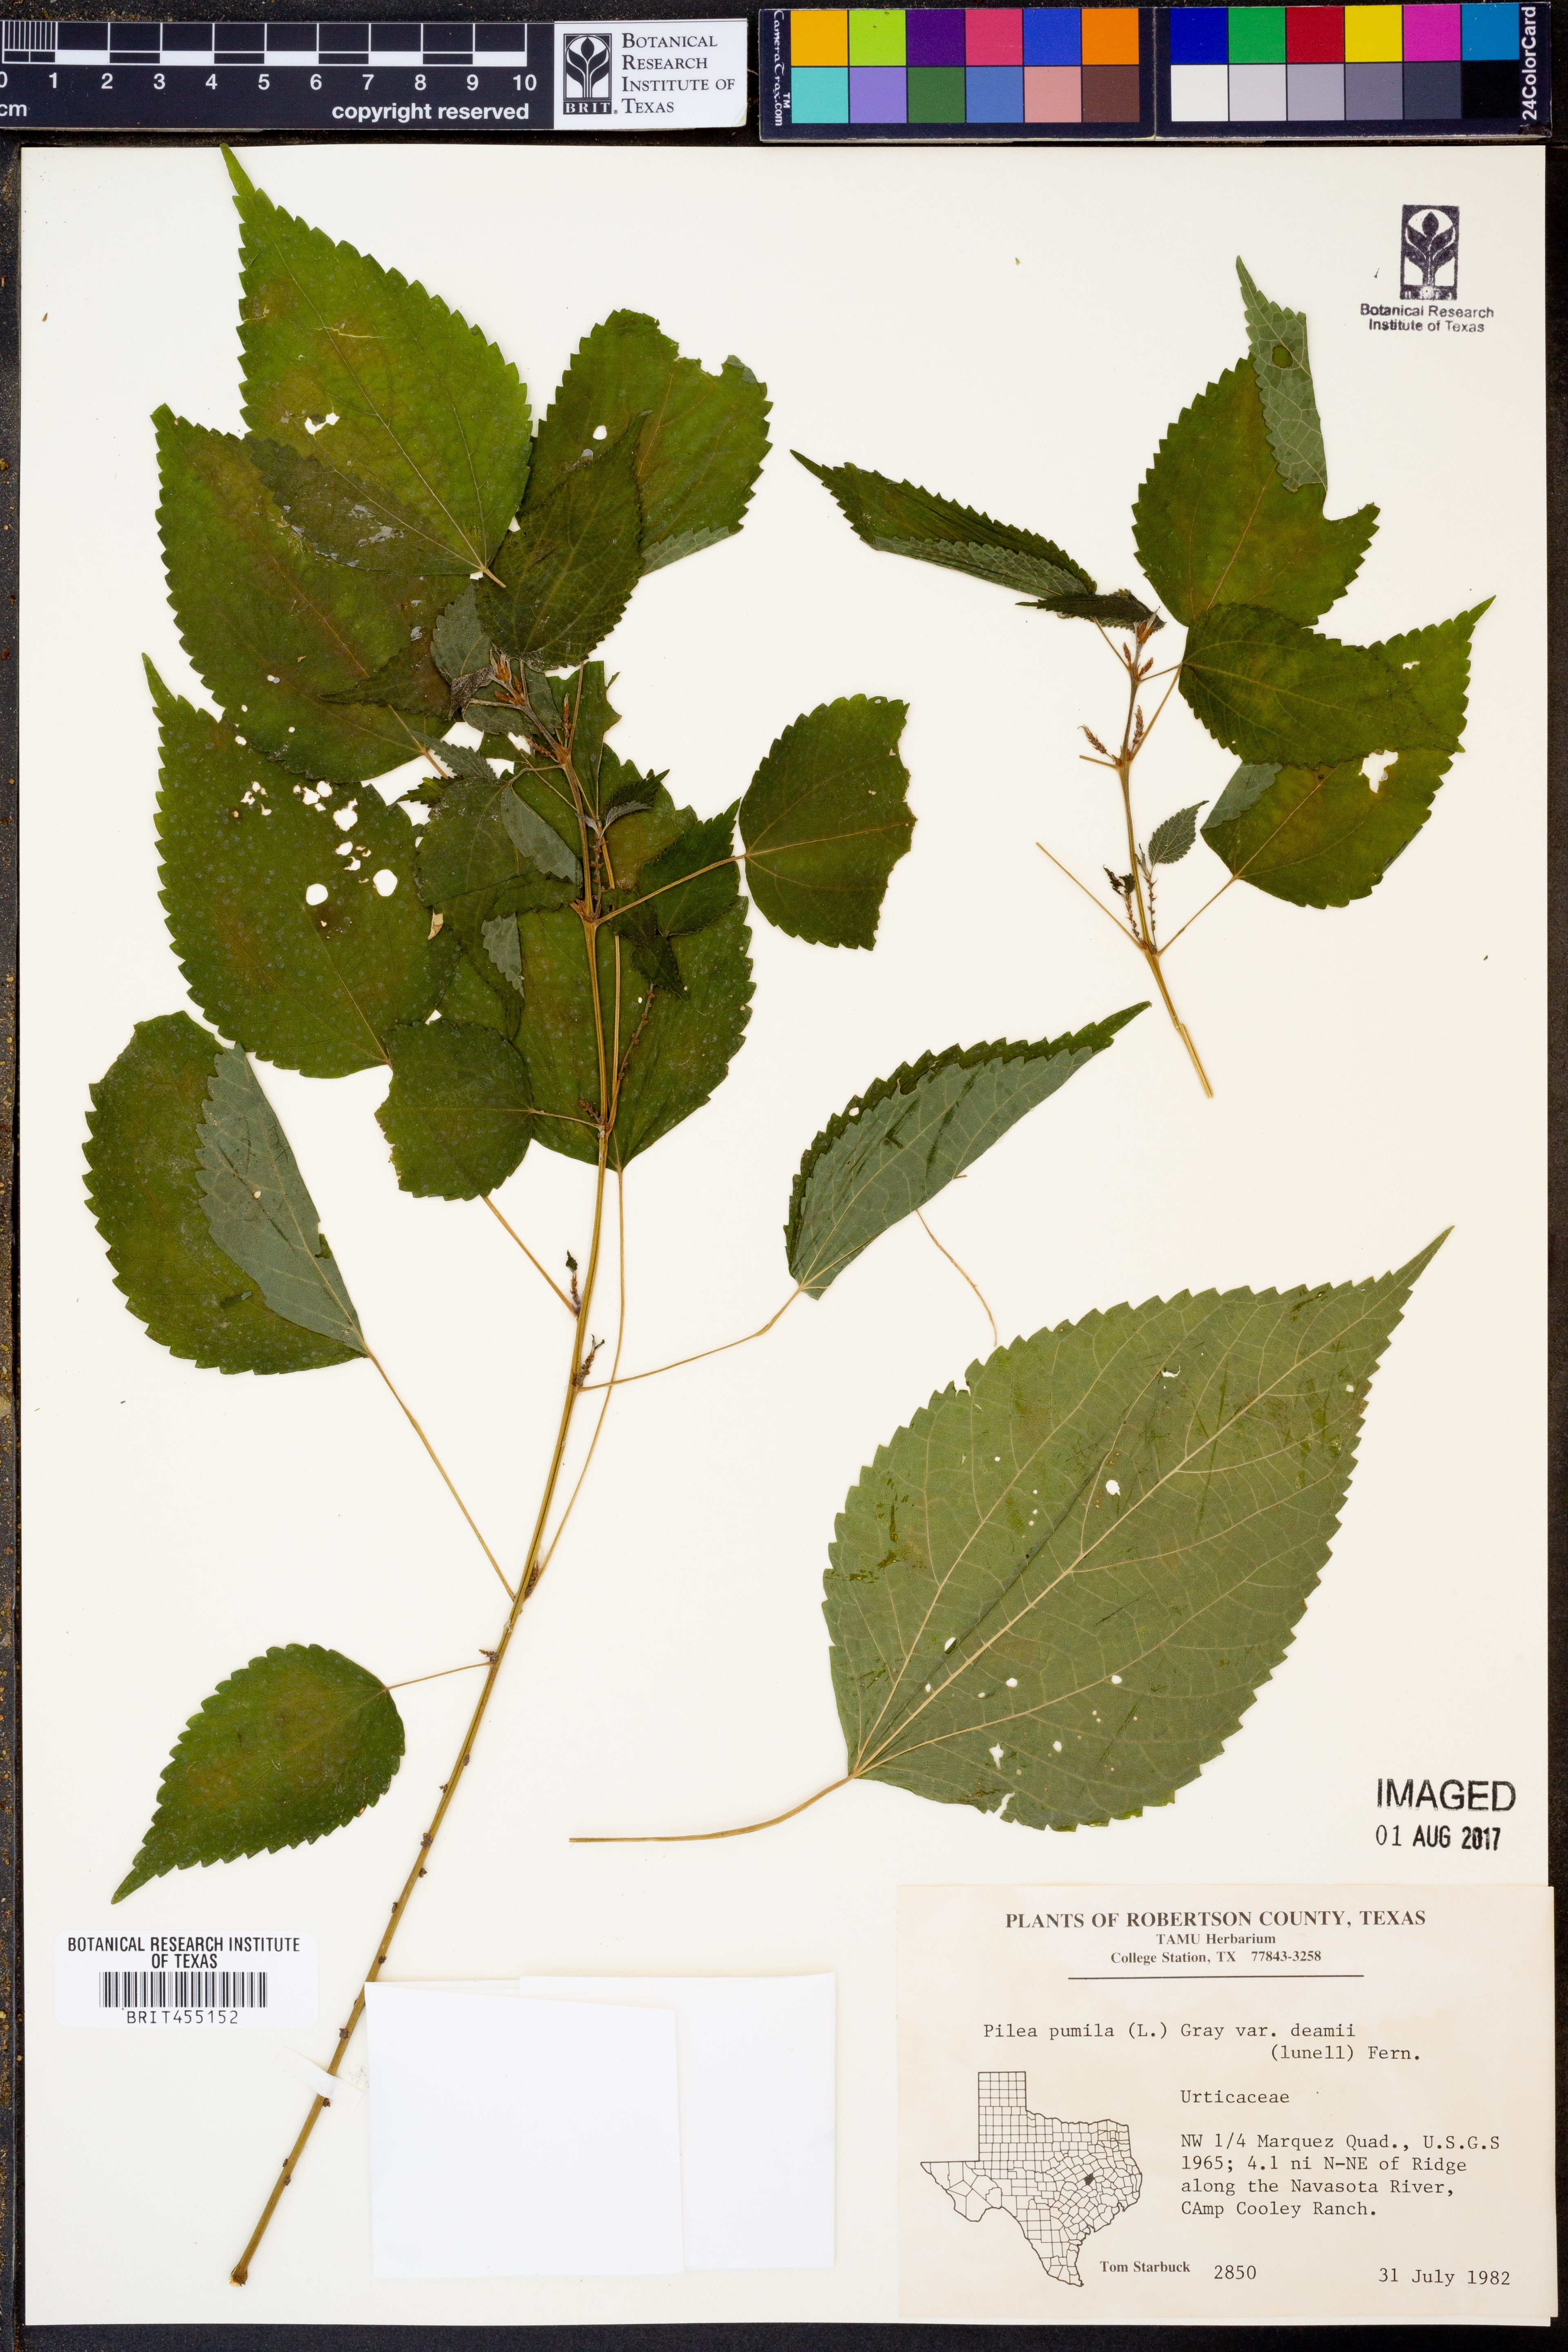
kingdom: Plantae
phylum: Tracheophyta
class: Magnoliopsida
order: Rosales
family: Urticaceae
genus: Pilea
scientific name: Pilea pumila
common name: Clearweed
